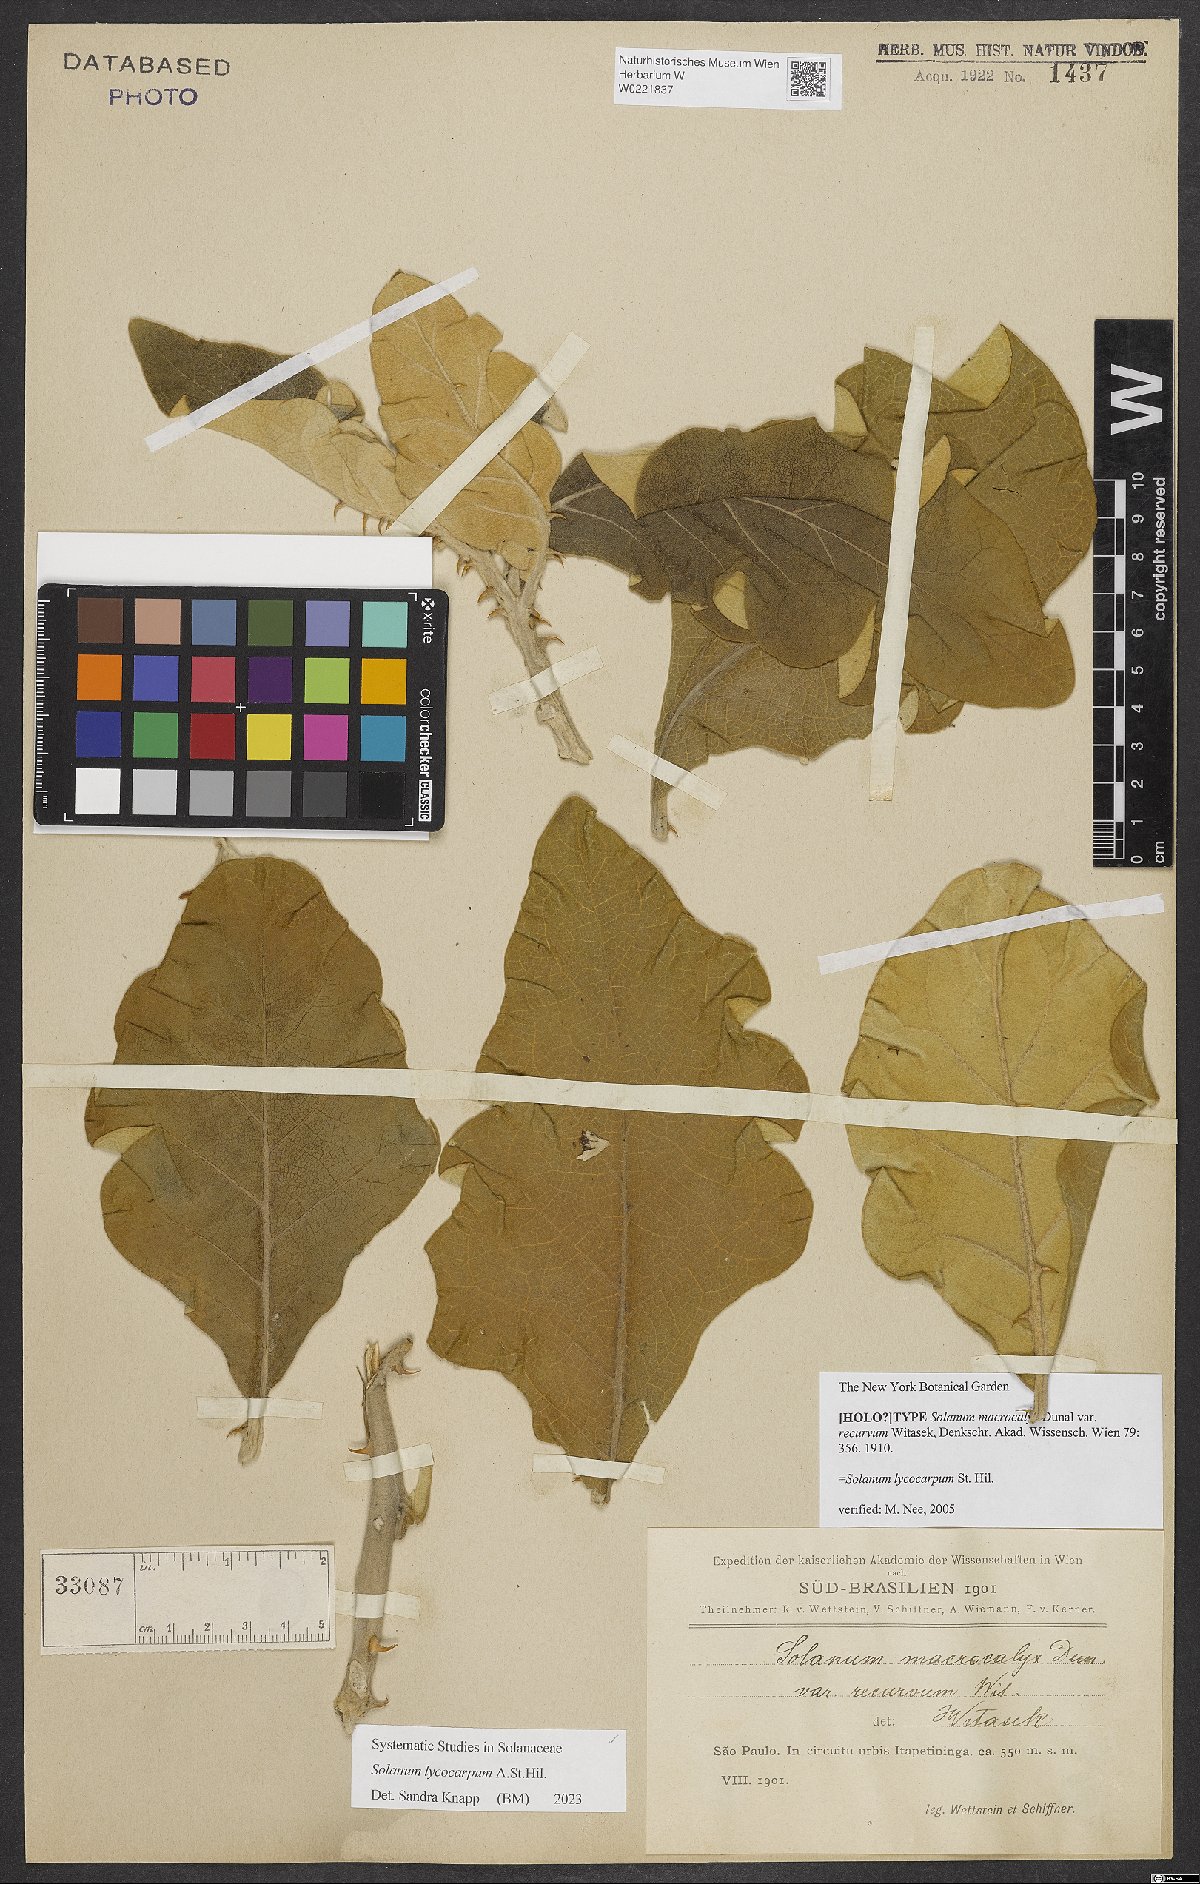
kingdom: Plantae
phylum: Tracheophyta
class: Magnoliopsida
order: Solanales
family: Solanaceae
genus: Solanum
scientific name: Solanum gomphodes
